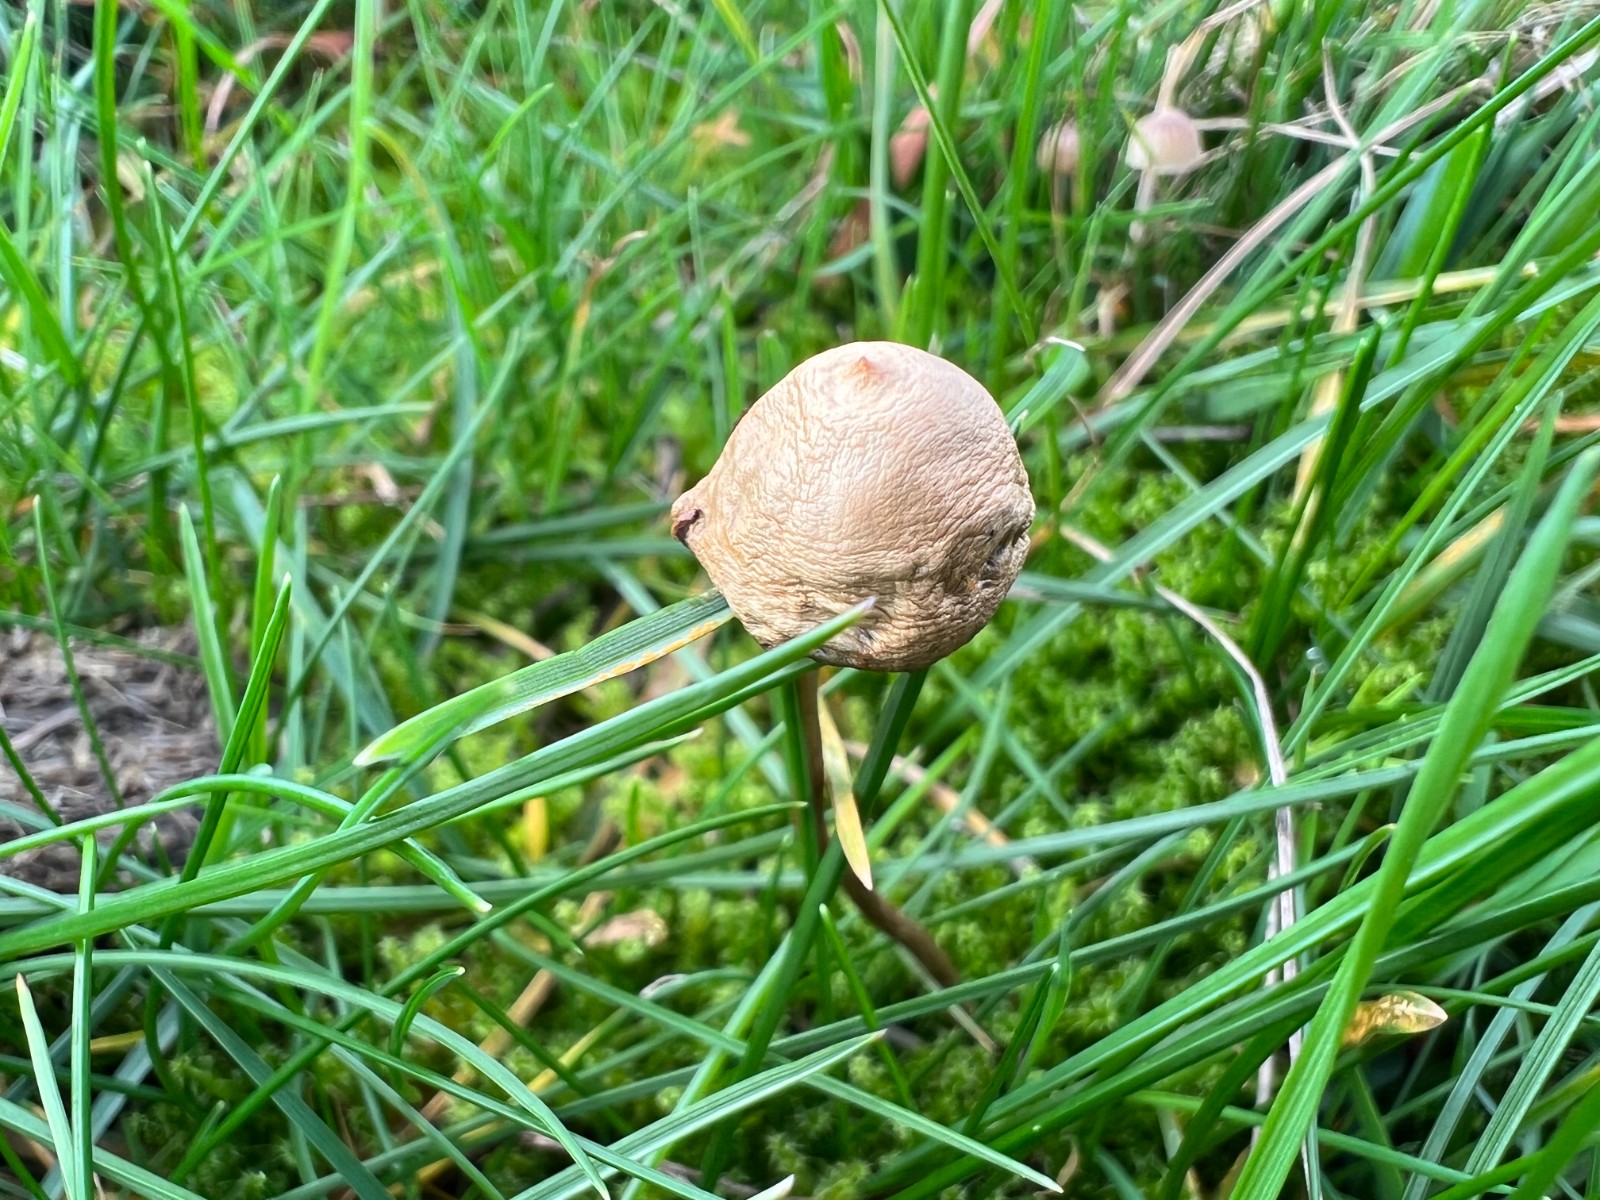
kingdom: Fungi
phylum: Basidiomycota
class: Agaricomycetes
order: Agaricales
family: Strophariaceae
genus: Protostropharia
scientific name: Protostropharia
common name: bredblad
